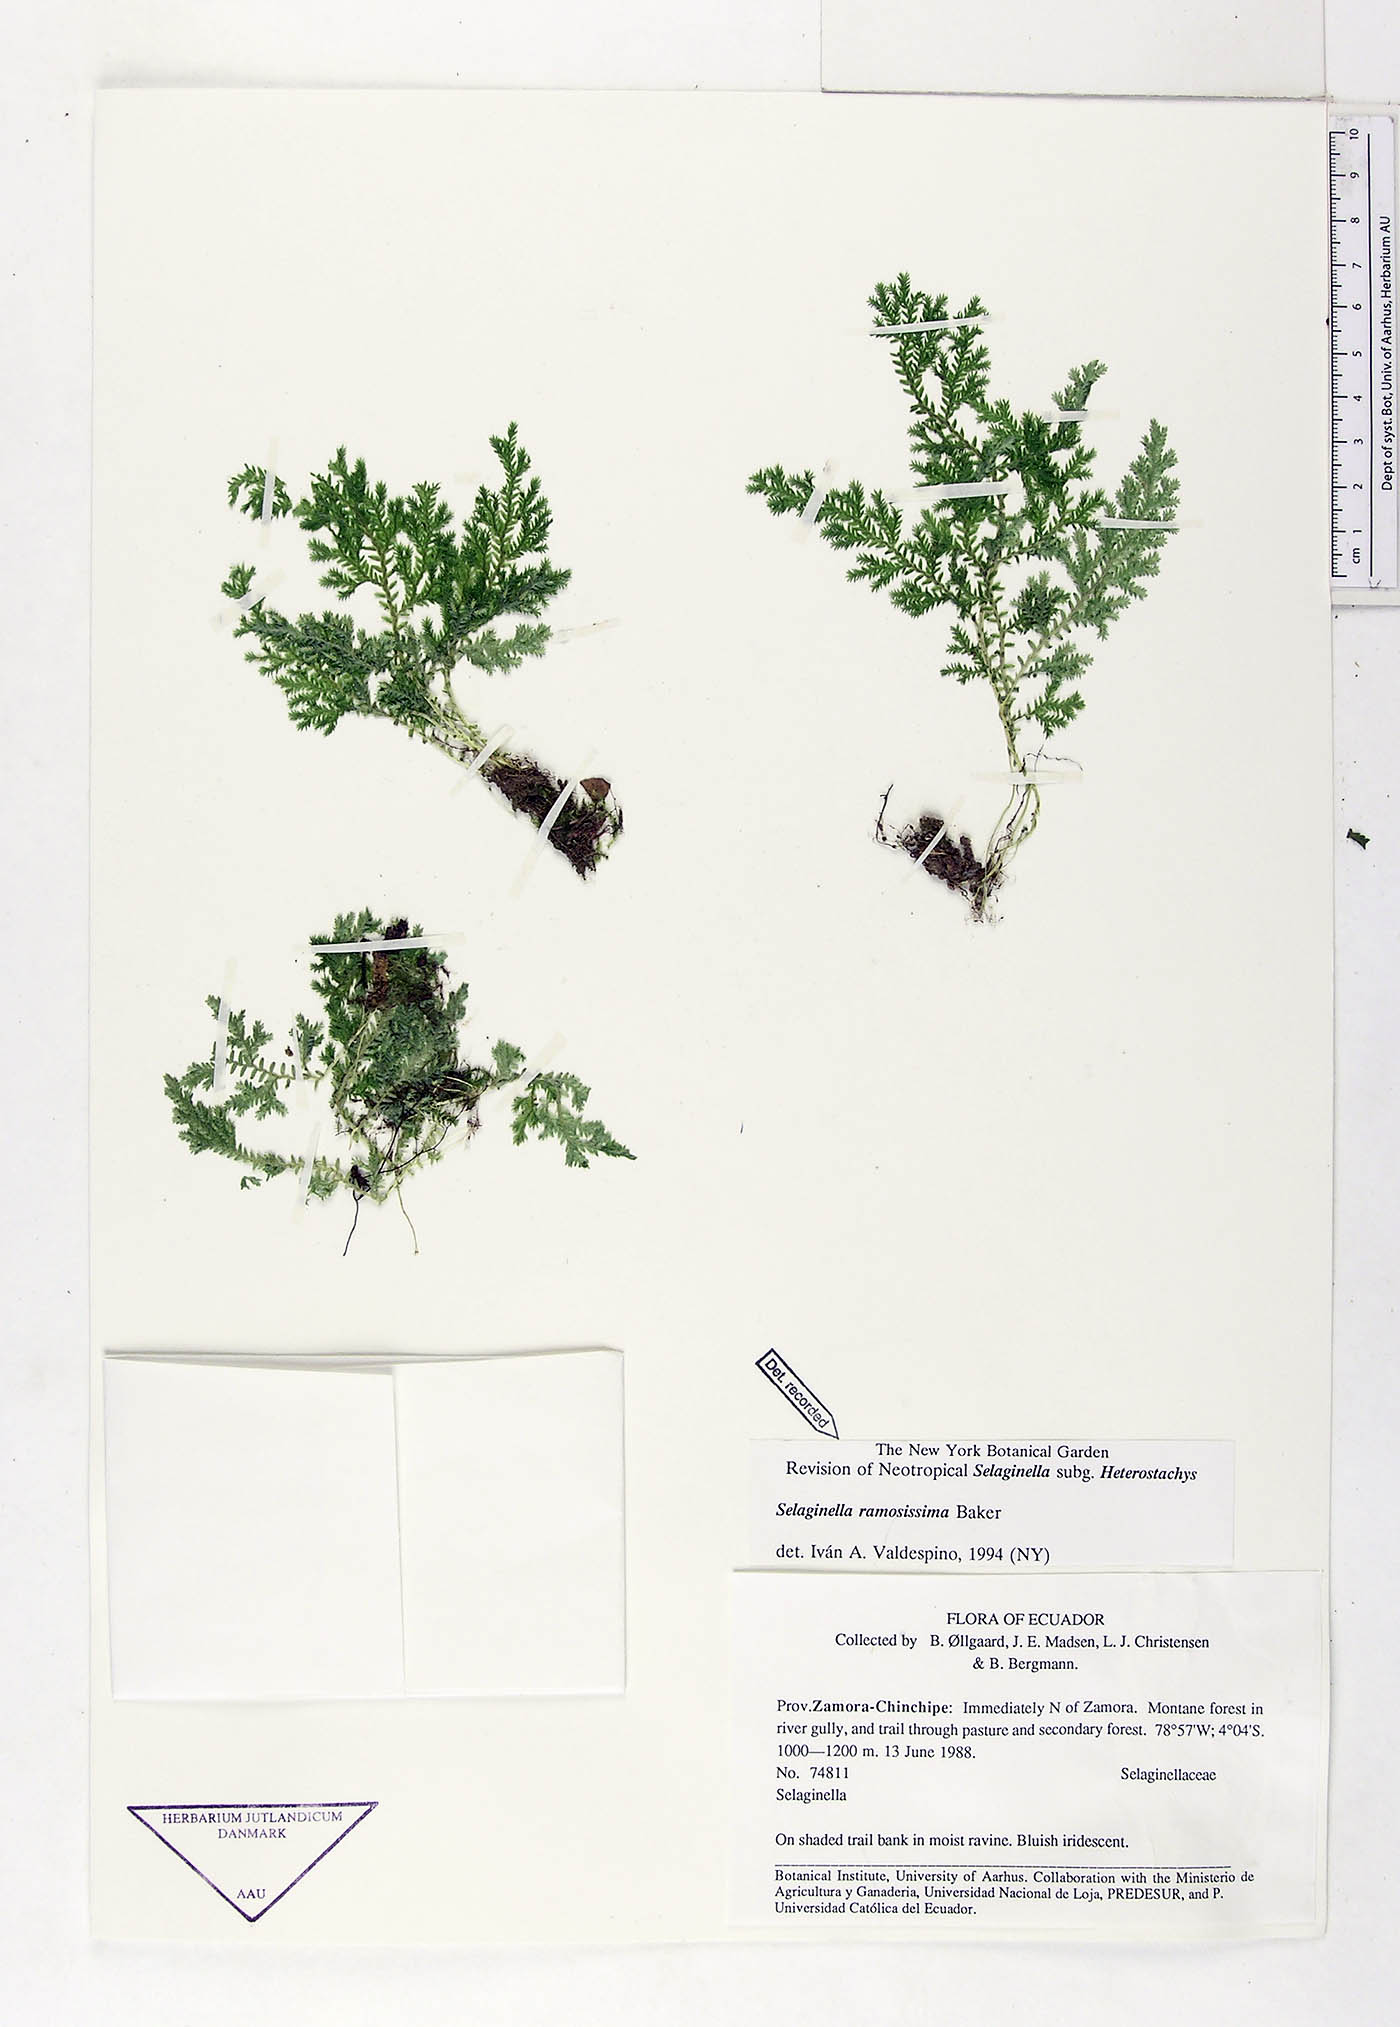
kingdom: Plantae
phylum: Tracheophyta
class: Lycopodiopsida
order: Selaginellales
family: Selaginellaceae
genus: Selaginella
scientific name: Selaginella ramosissima
